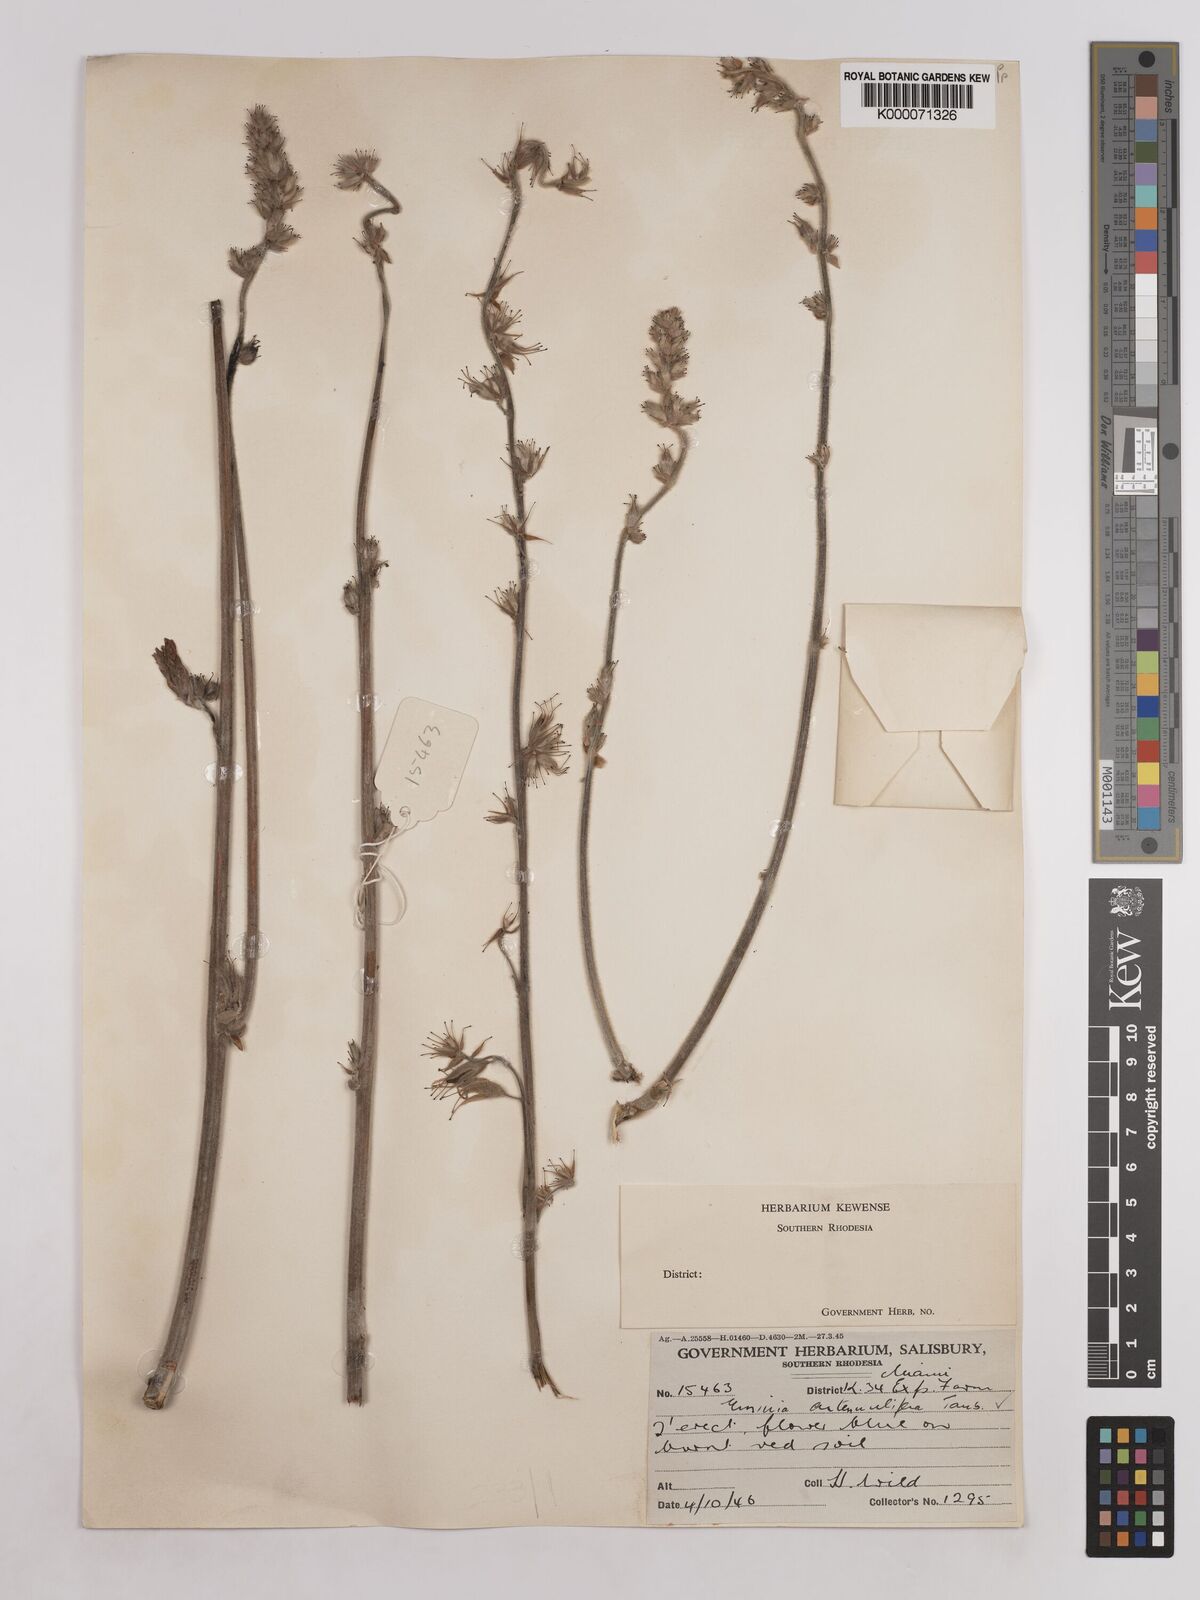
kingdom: Plantae
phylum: Tracheophyta
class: Magnoliopsida
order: Fabales
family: Fabaceae
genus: Eminia
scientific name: Eminia antennulifera
